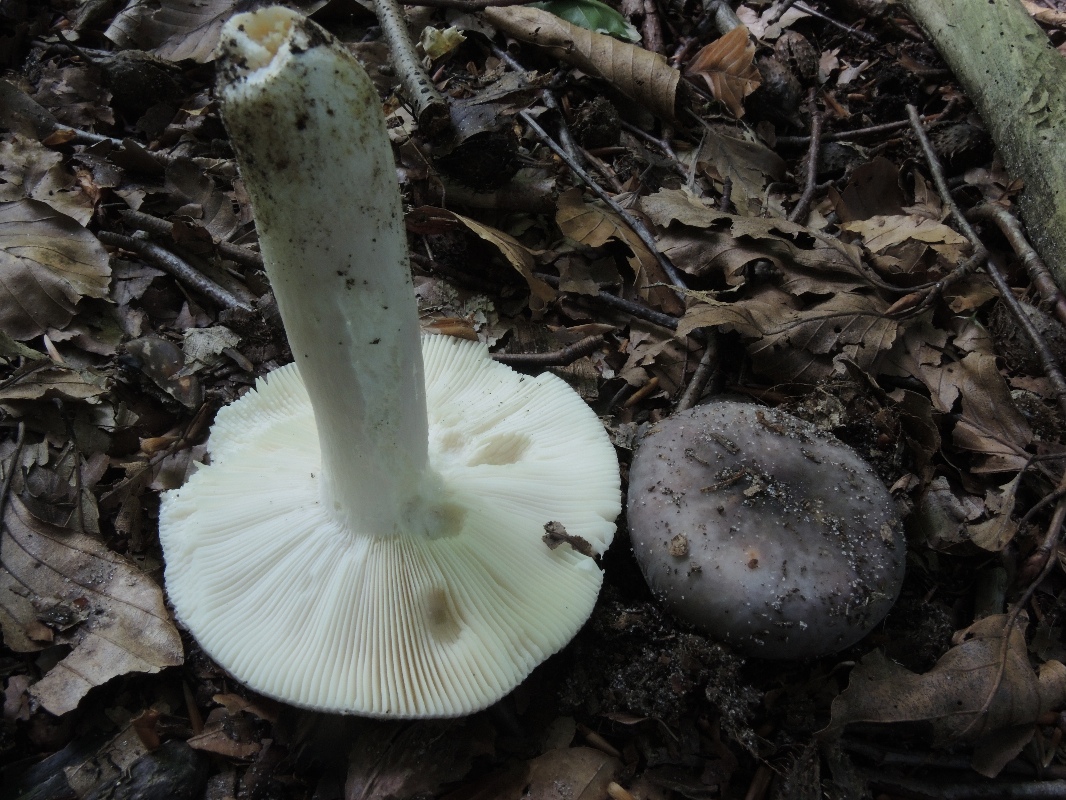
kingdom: Fungi
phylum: Basidiomycota
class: Agaricomycetes
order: Russulales
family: Russulaceae
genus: Russula
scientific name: Russula ionochlora
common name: violetgrøn skørhat
